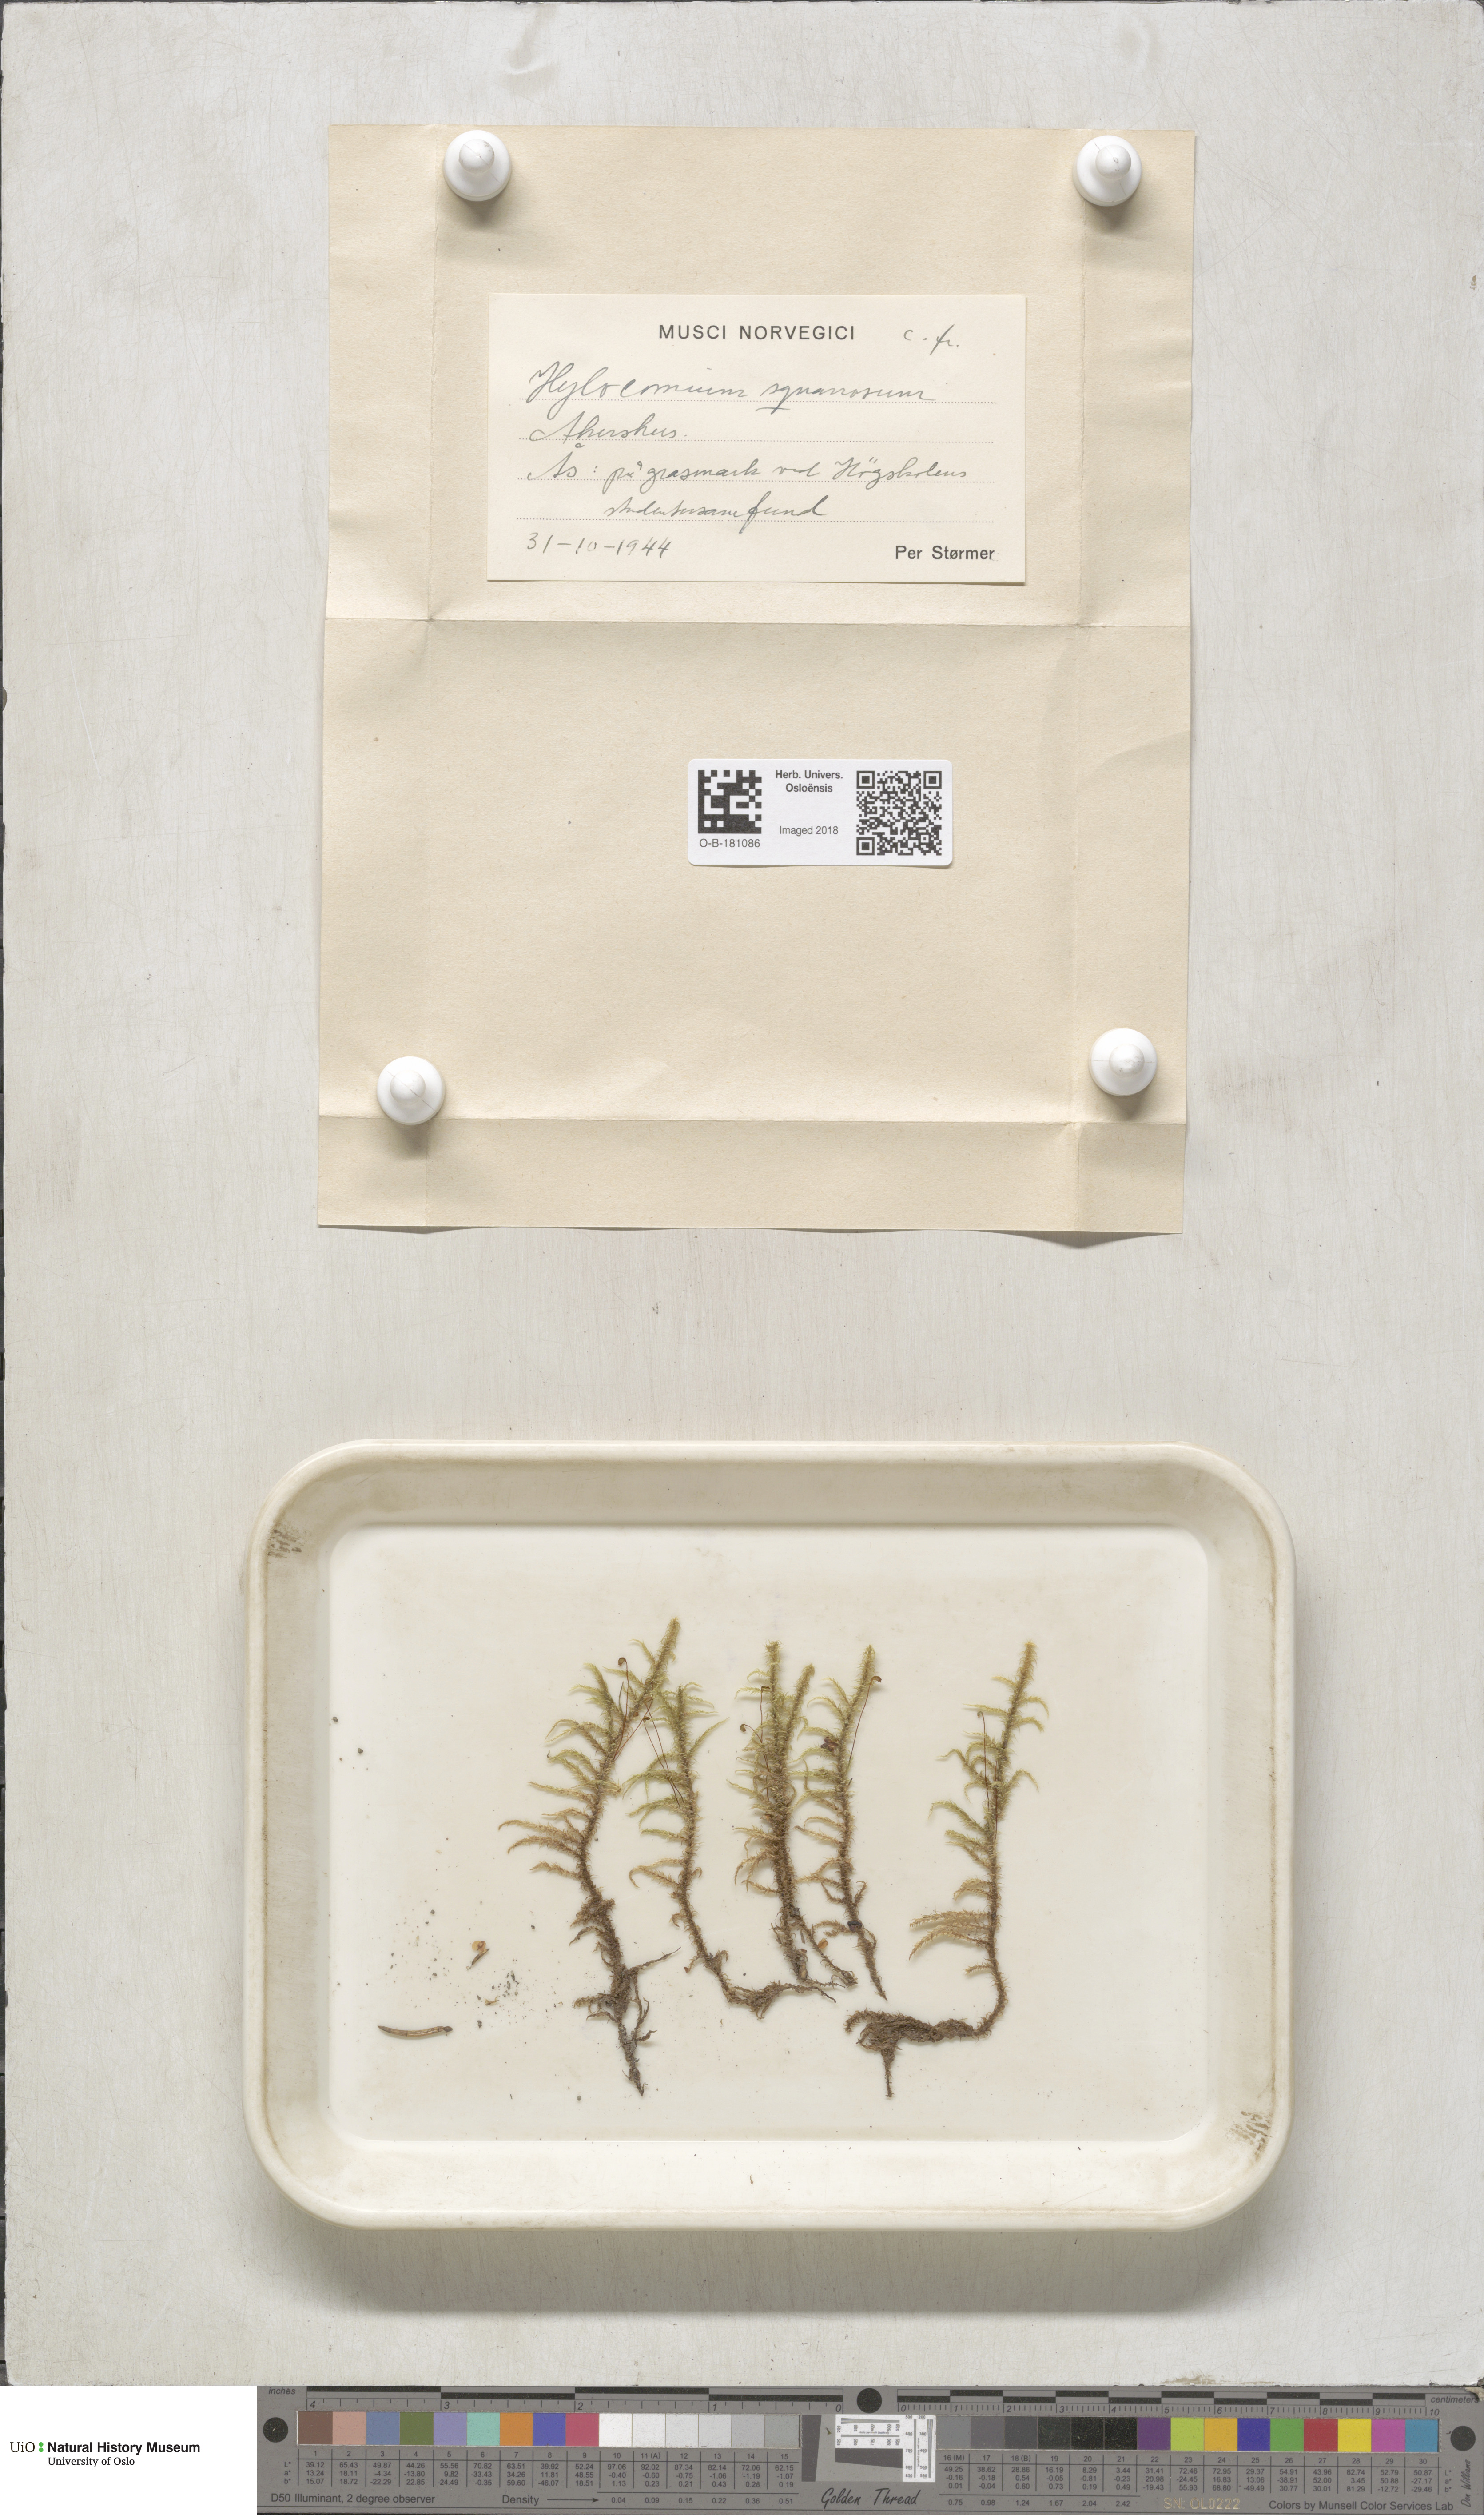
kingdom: Plantae
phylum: Bryophyta
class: Bryopsida
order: Hypnales
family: Hylocomiaceae
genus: Rhytidiadelphus
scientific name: Rhytidiadelphus squarrosus
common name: Springy turf-moss
